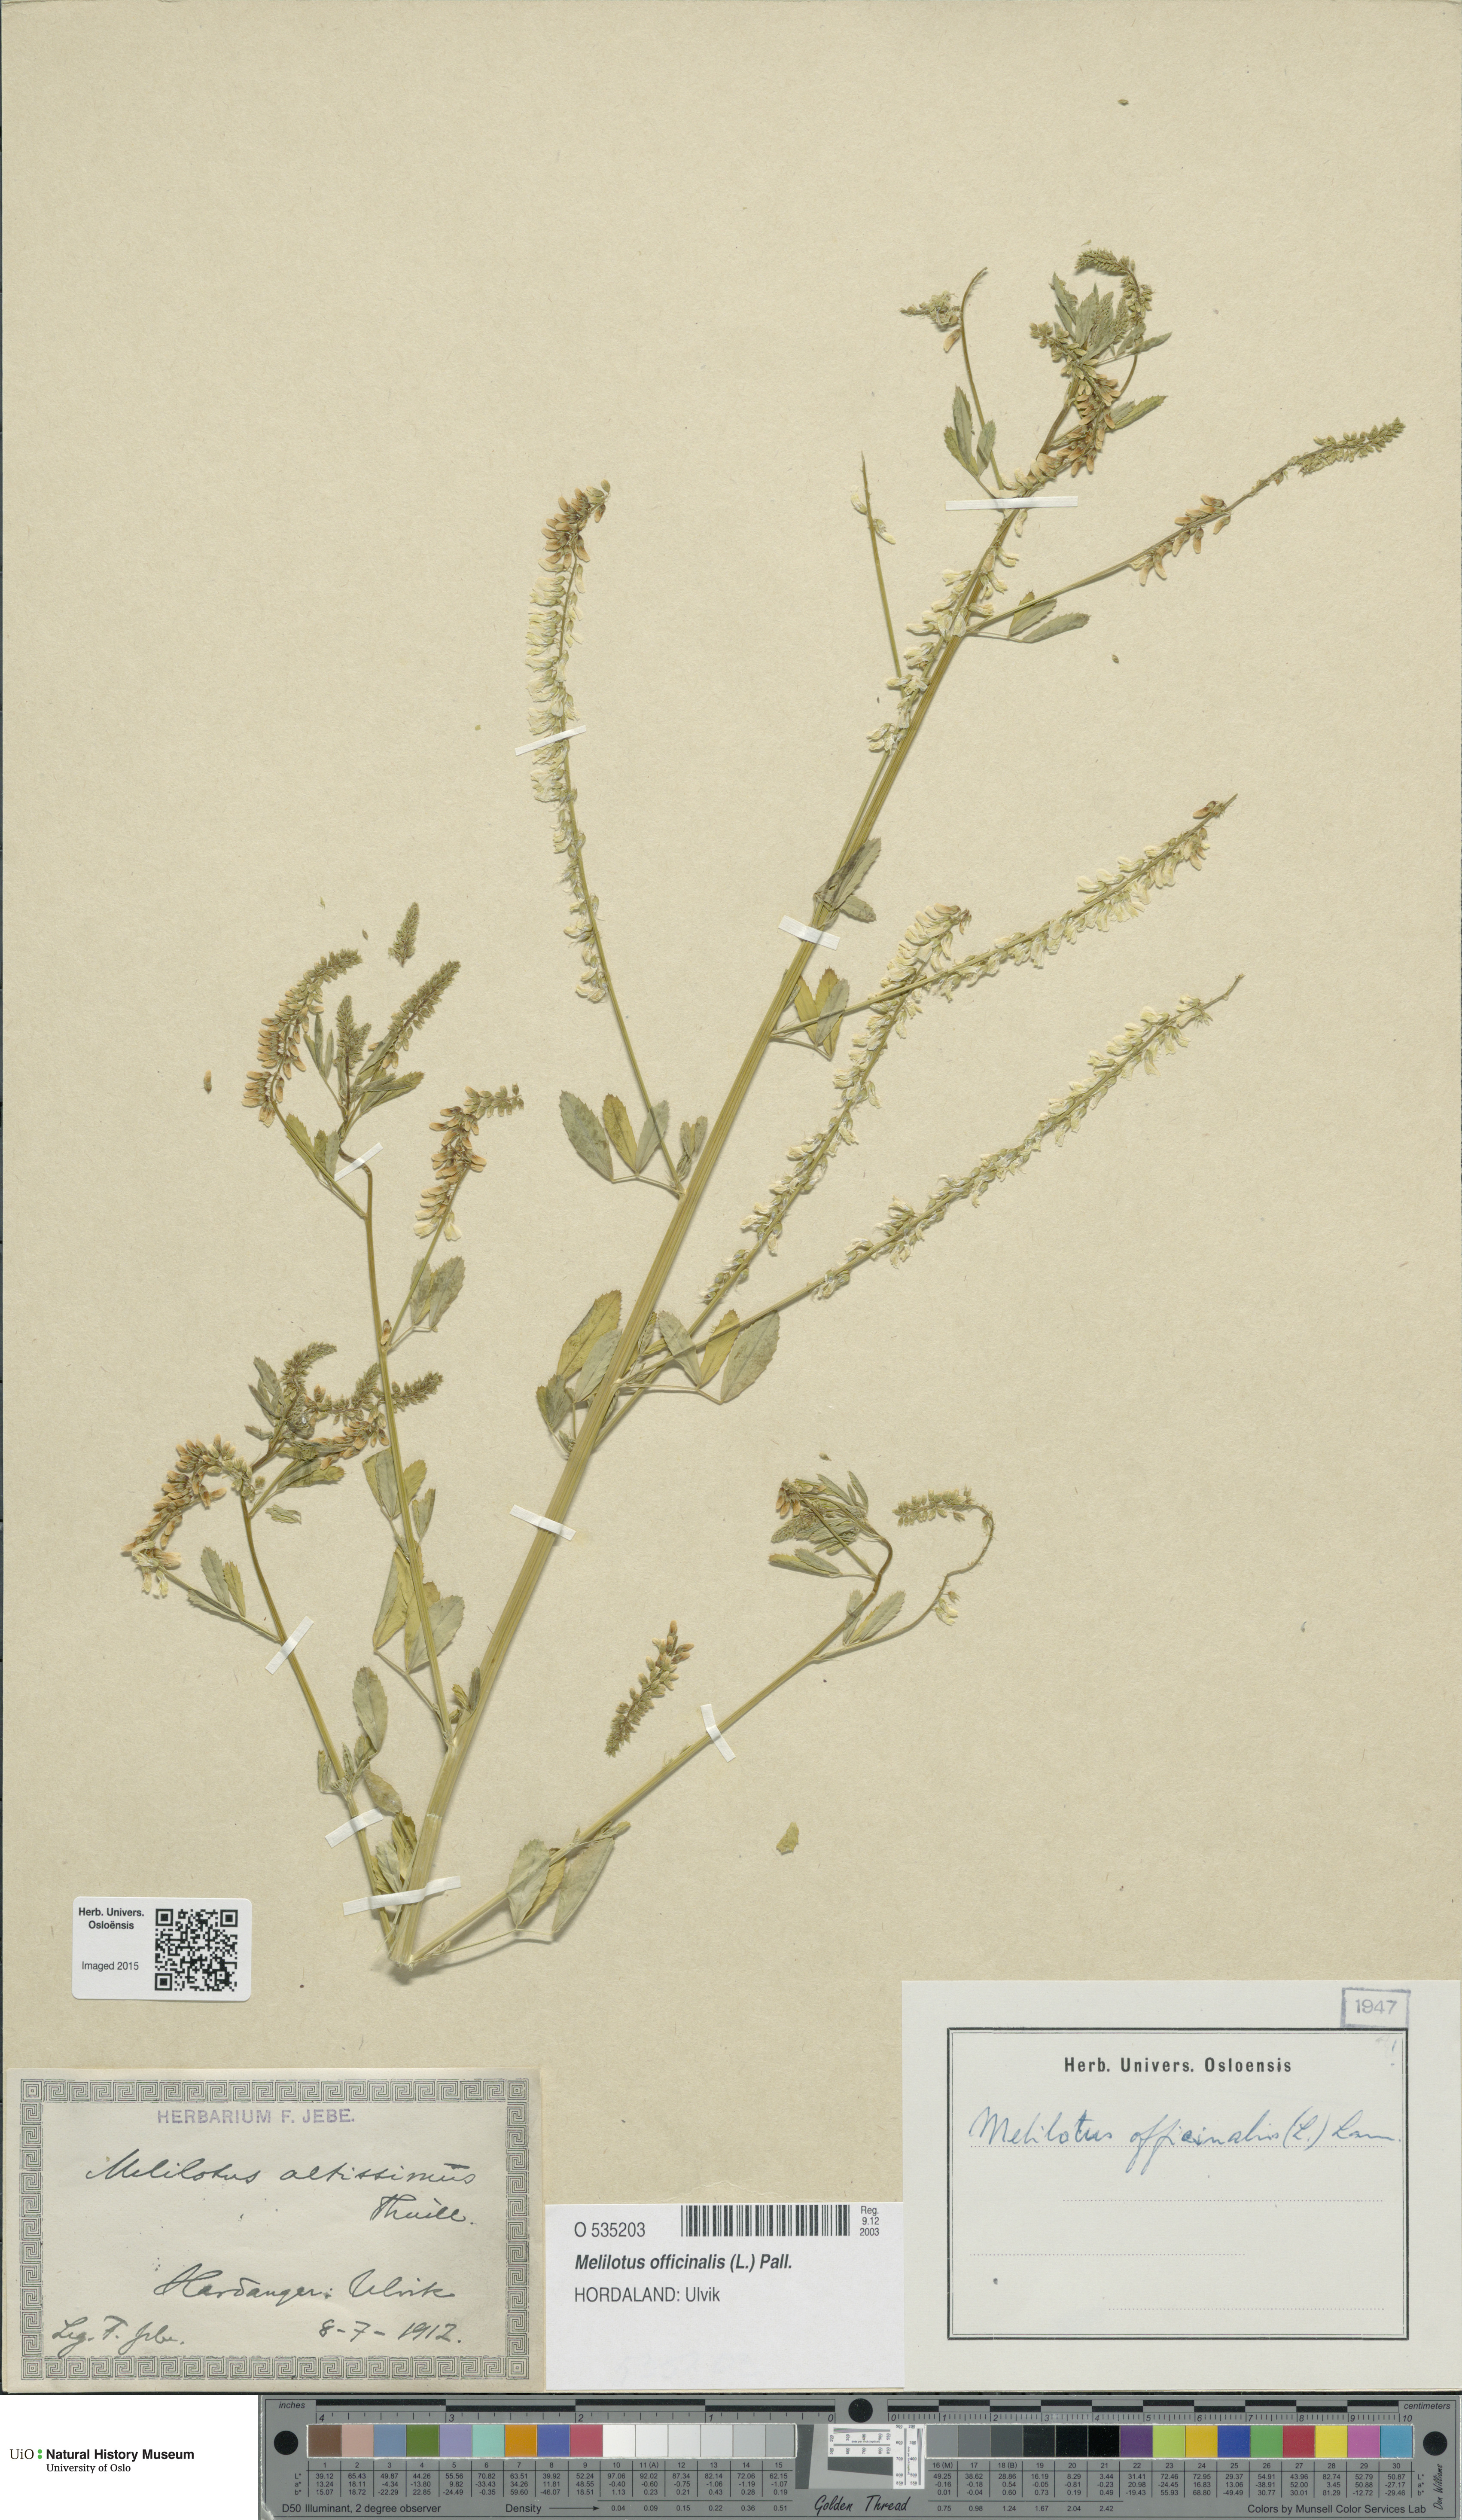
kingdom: Plantae
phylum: Tracheophyta
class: Magnoliopsida
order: Fabales
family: Fabaceae
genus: Melilotus
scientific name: Melilotus officinalis
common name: Sweetclover
